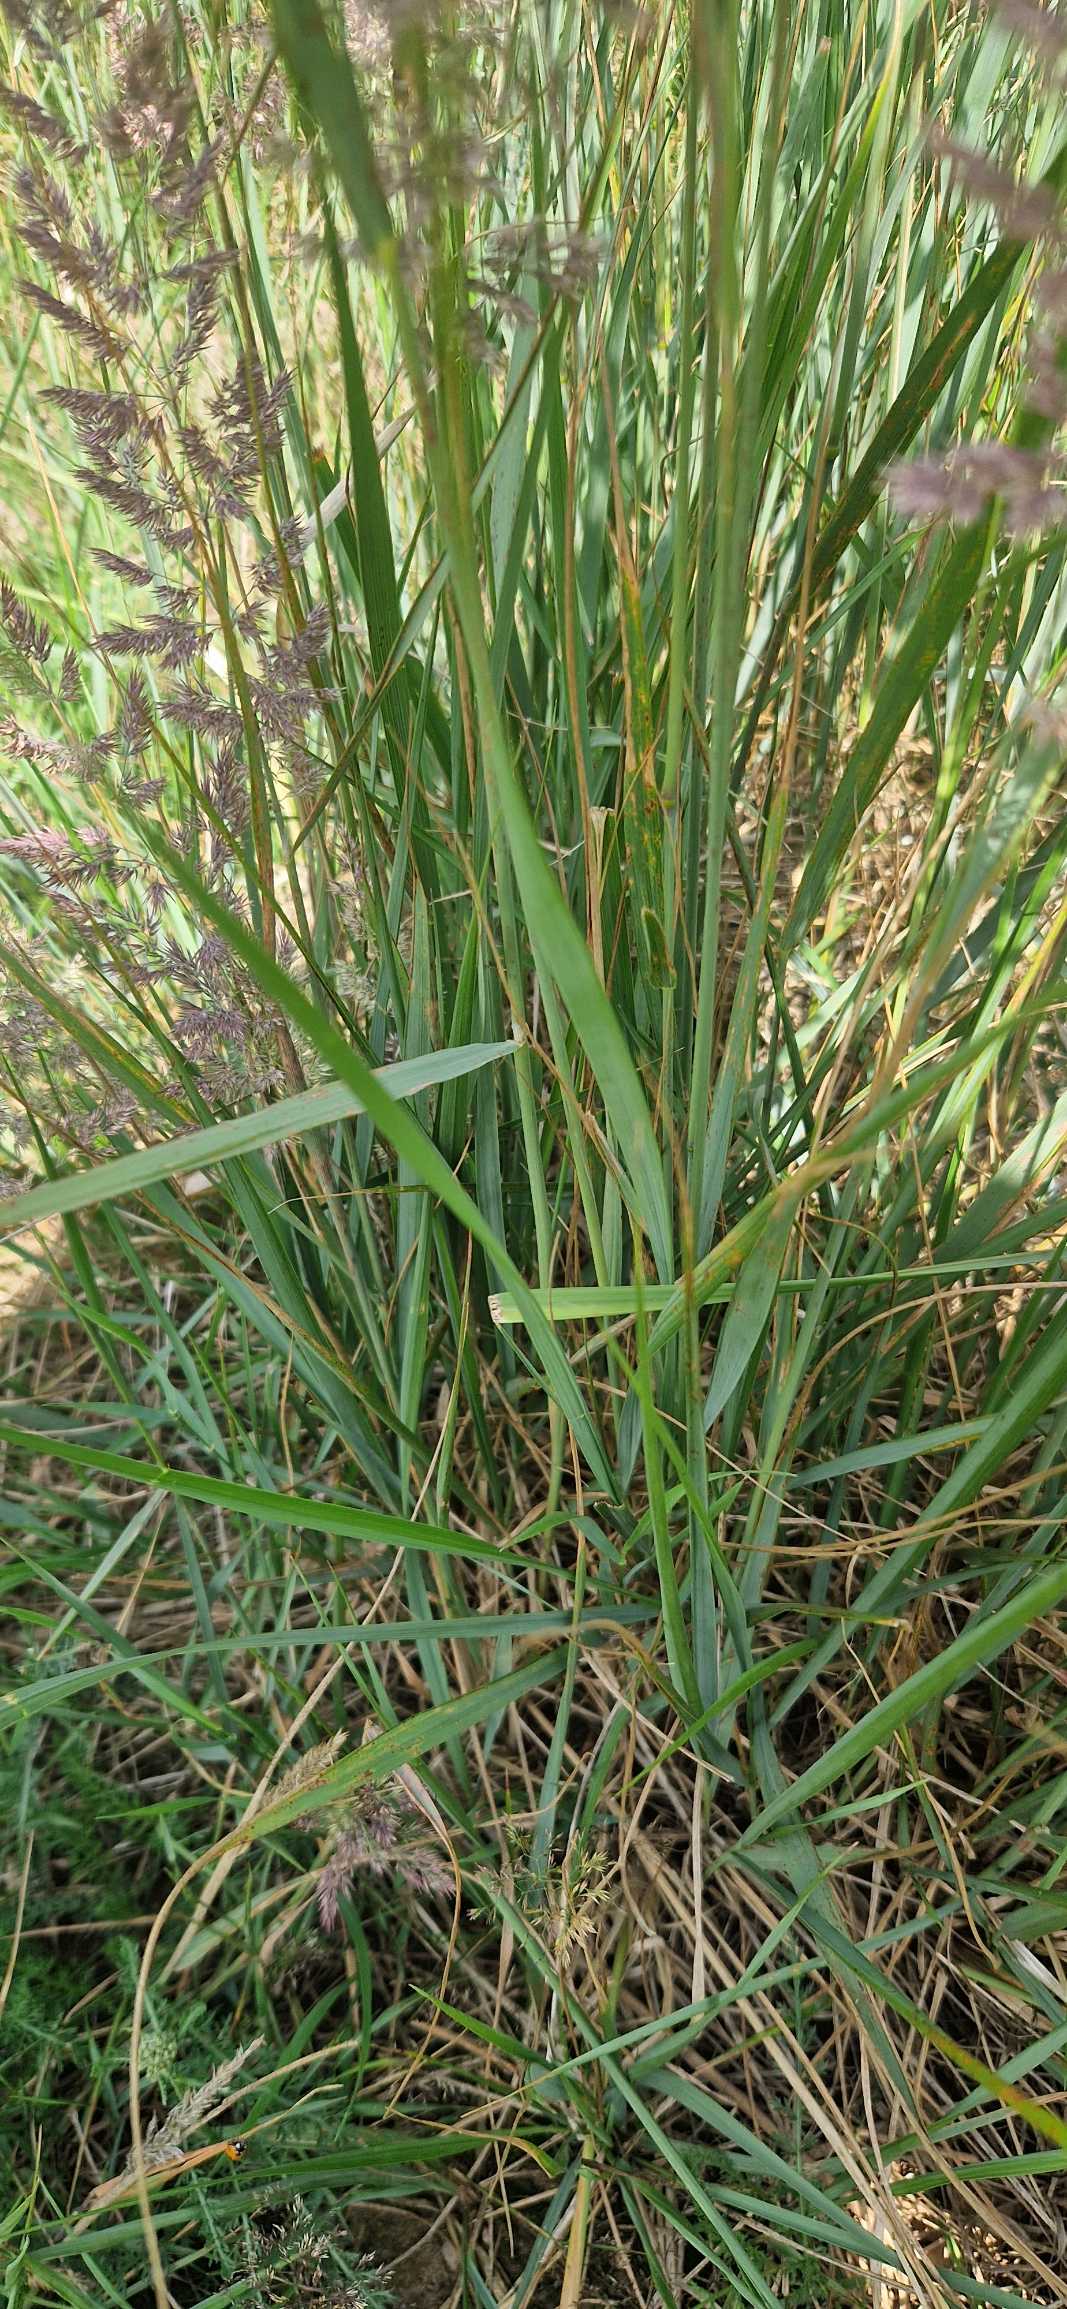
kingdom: Plantae
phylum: Tracheophyta
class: Liliopsida
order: Poales
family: Poaceae
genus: Calamagrostis
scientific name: Calamagrostis epigejos
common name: Bjerg-rørhvene
